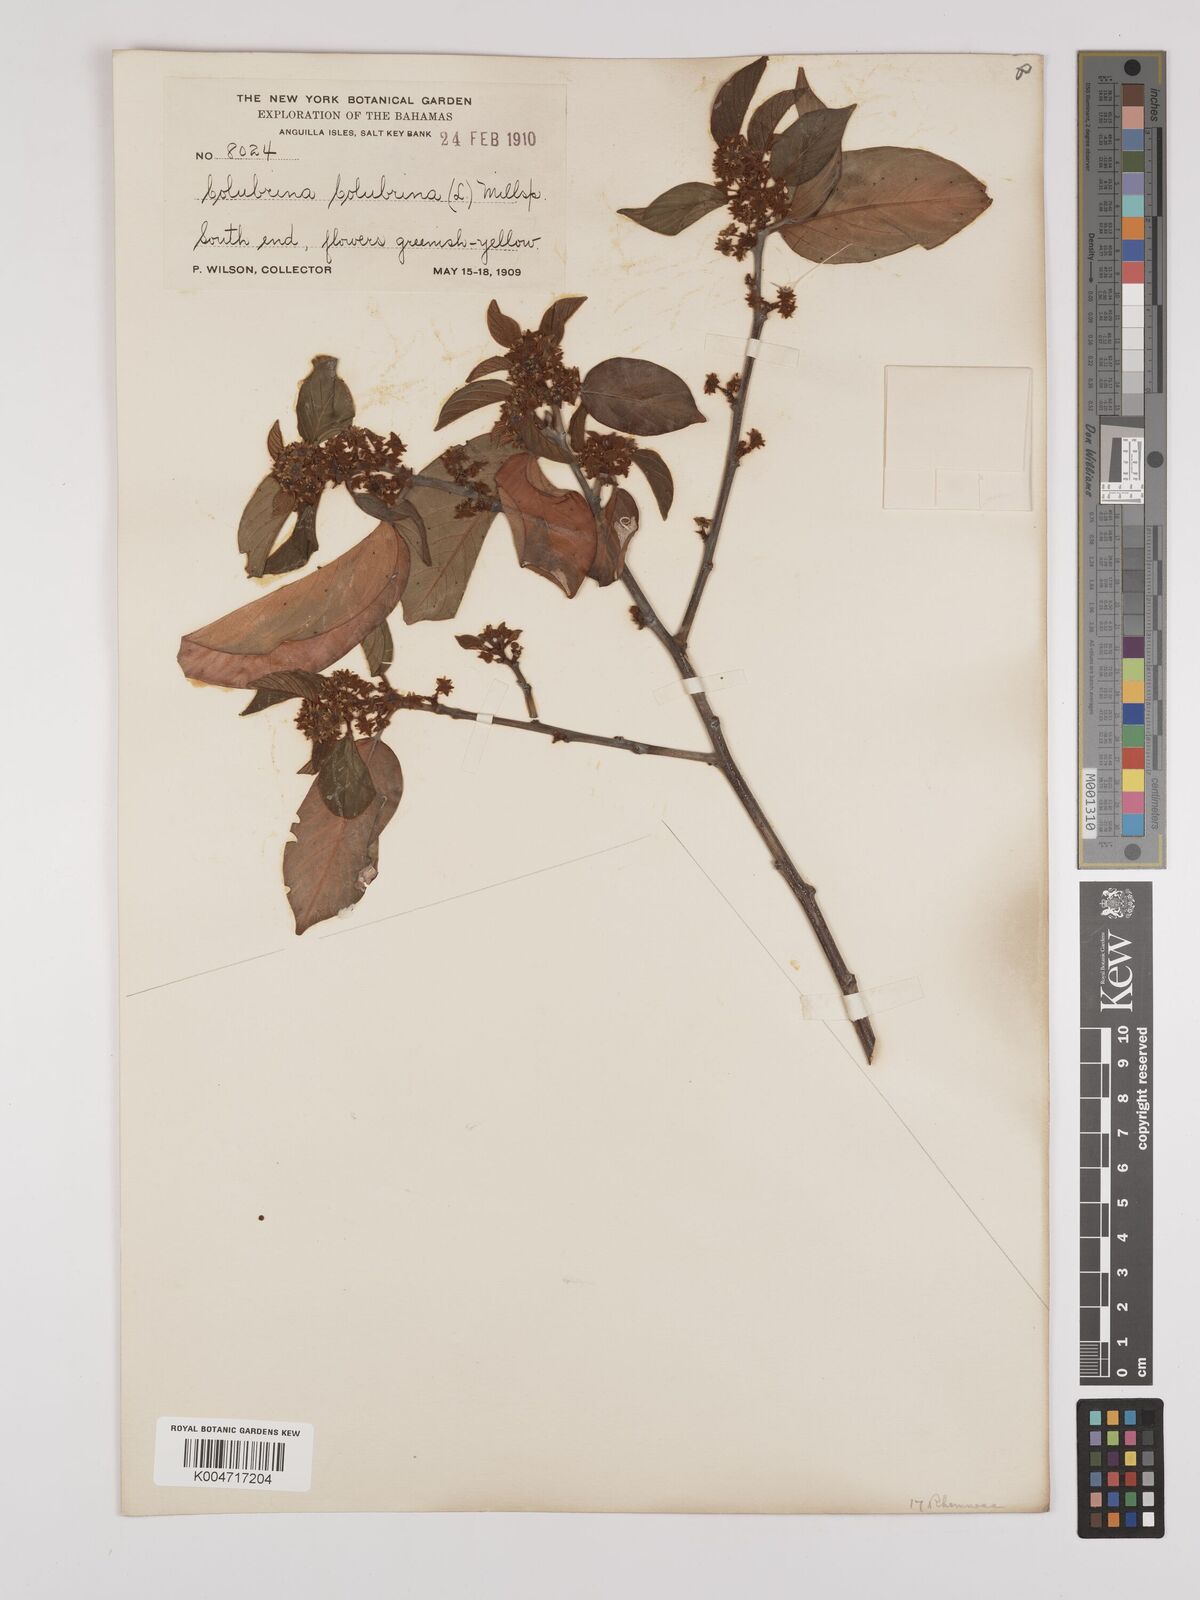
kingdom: Plantae
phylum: Tracheophyta
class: Magnoliopsida
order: Rosales
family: Rhamnaceae
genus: Colubrina
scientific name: Colubrina arborescens
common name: Wild coffee
